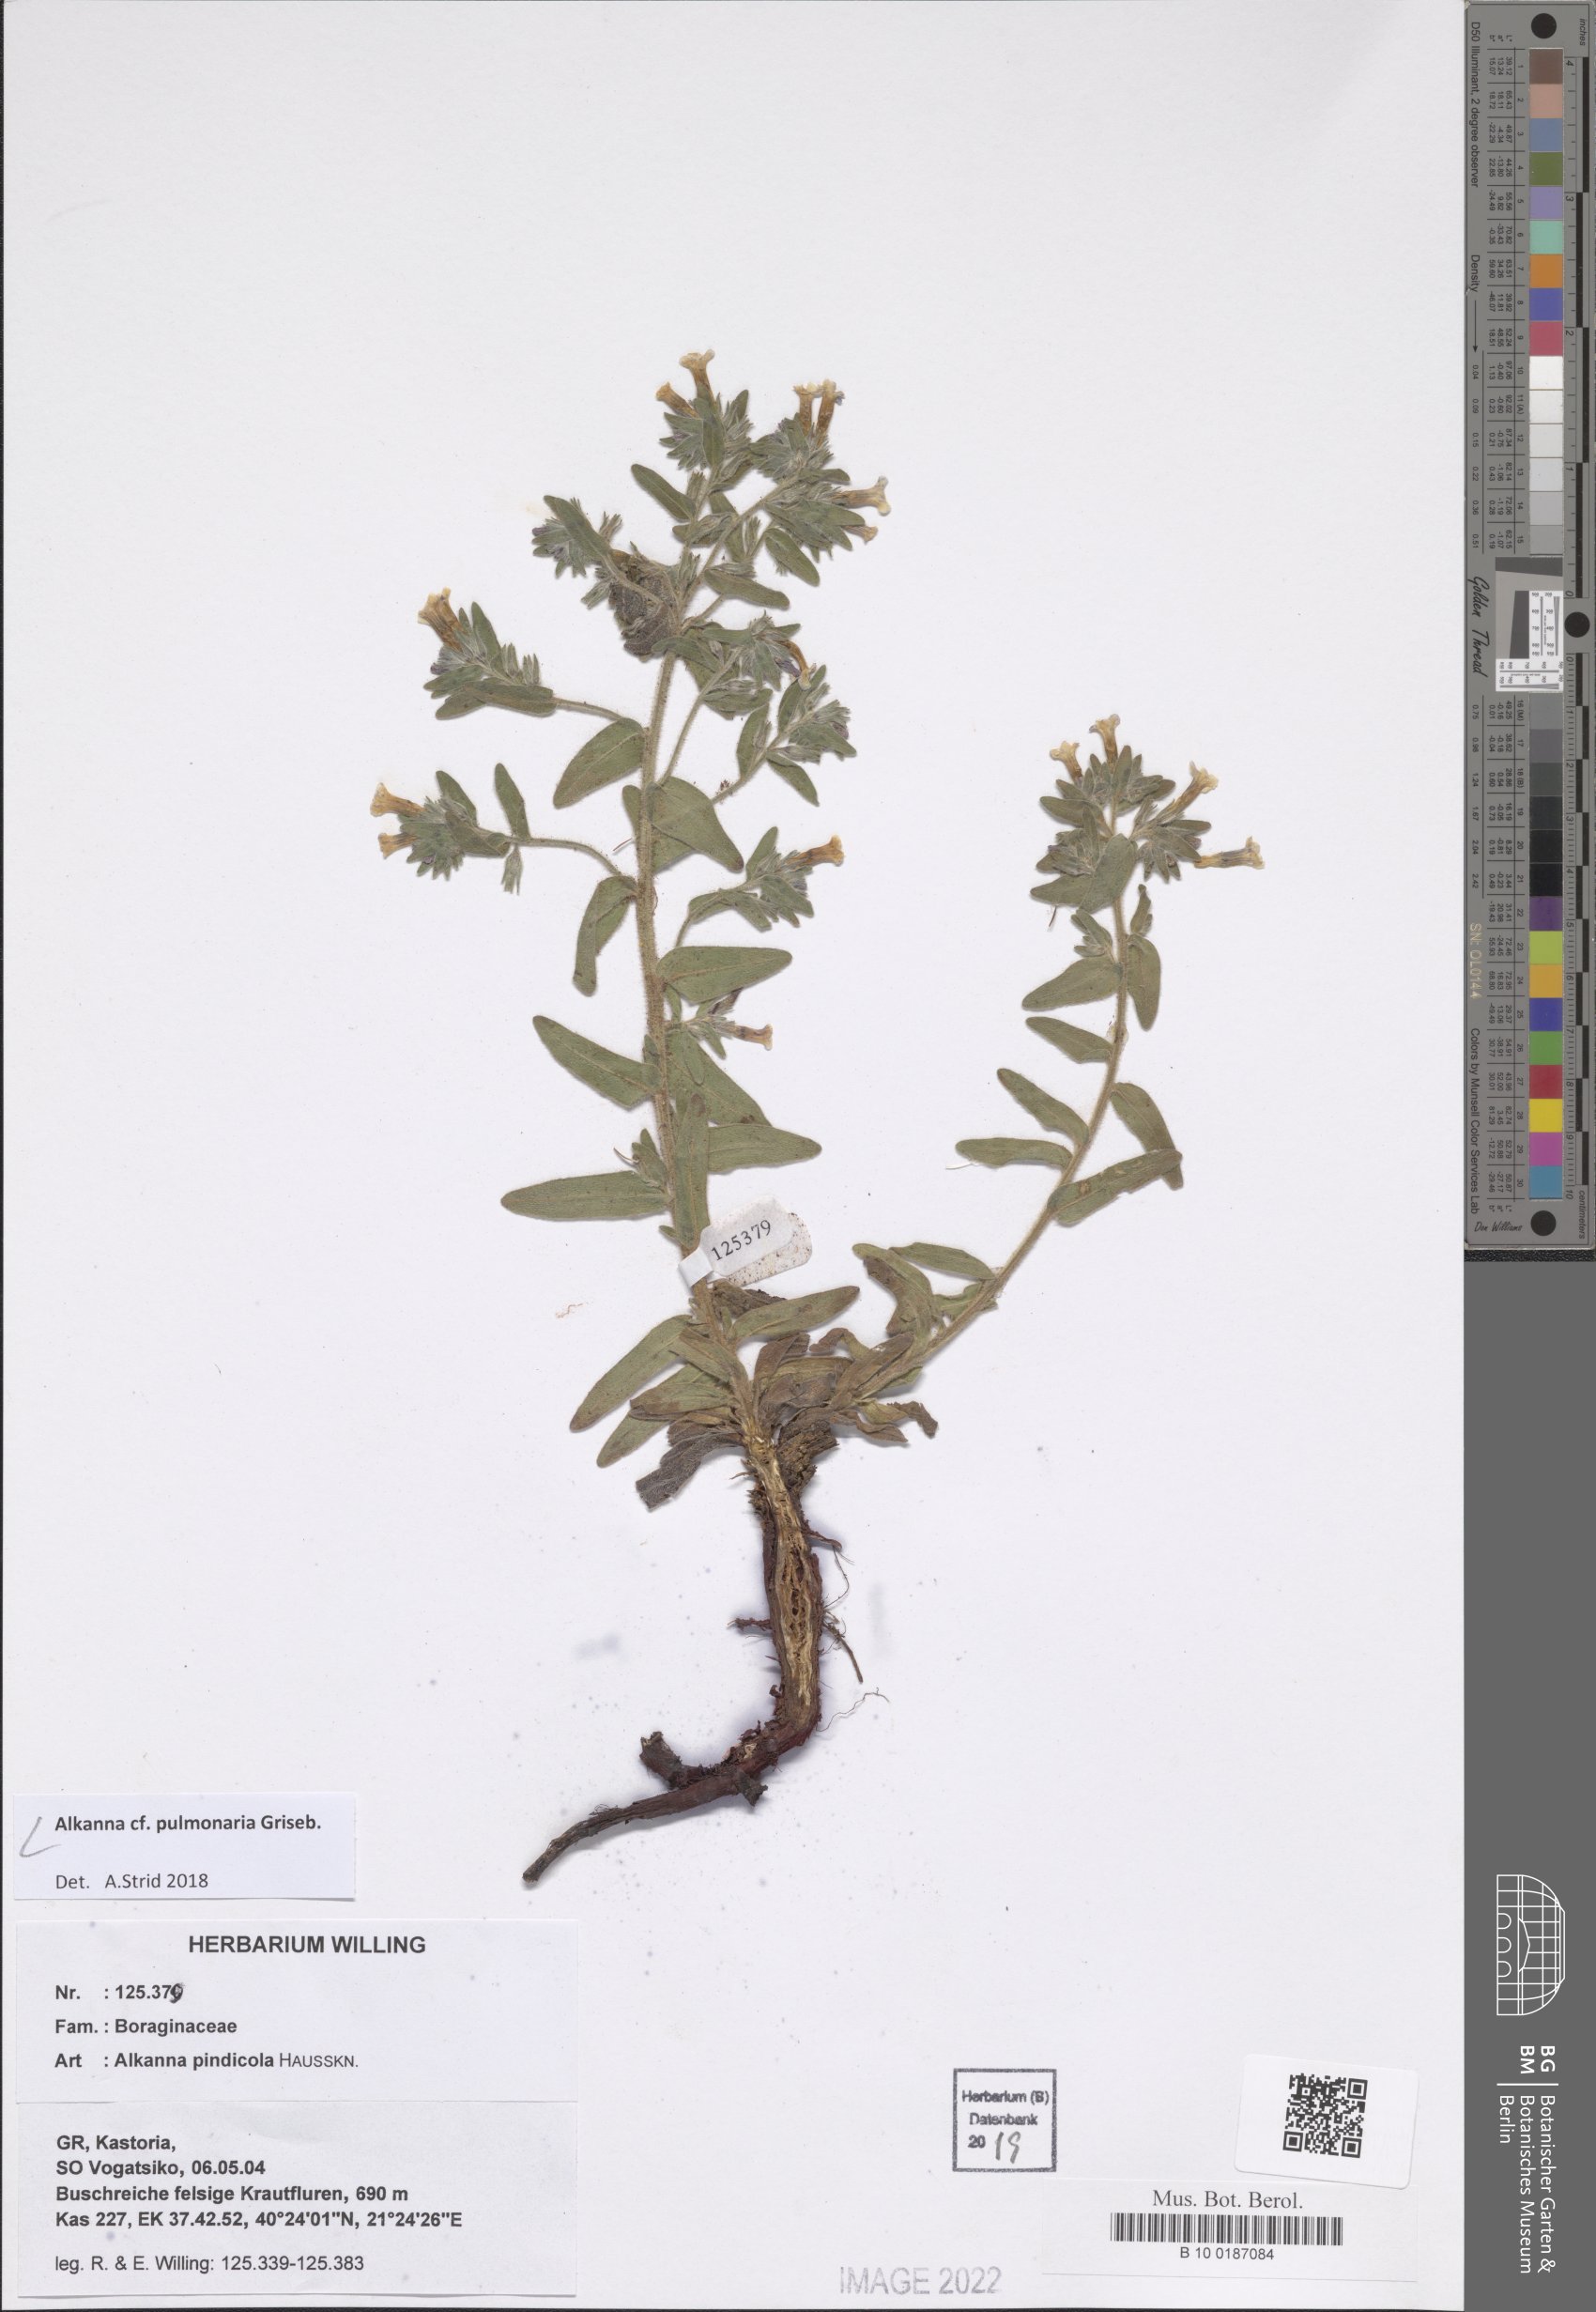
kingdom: Plantae
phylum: Tracheophyta
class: Magnoliopsida
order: Boraginales
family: Boraginaceae
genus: Alkanna
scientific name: Alkanna pulmonaria
